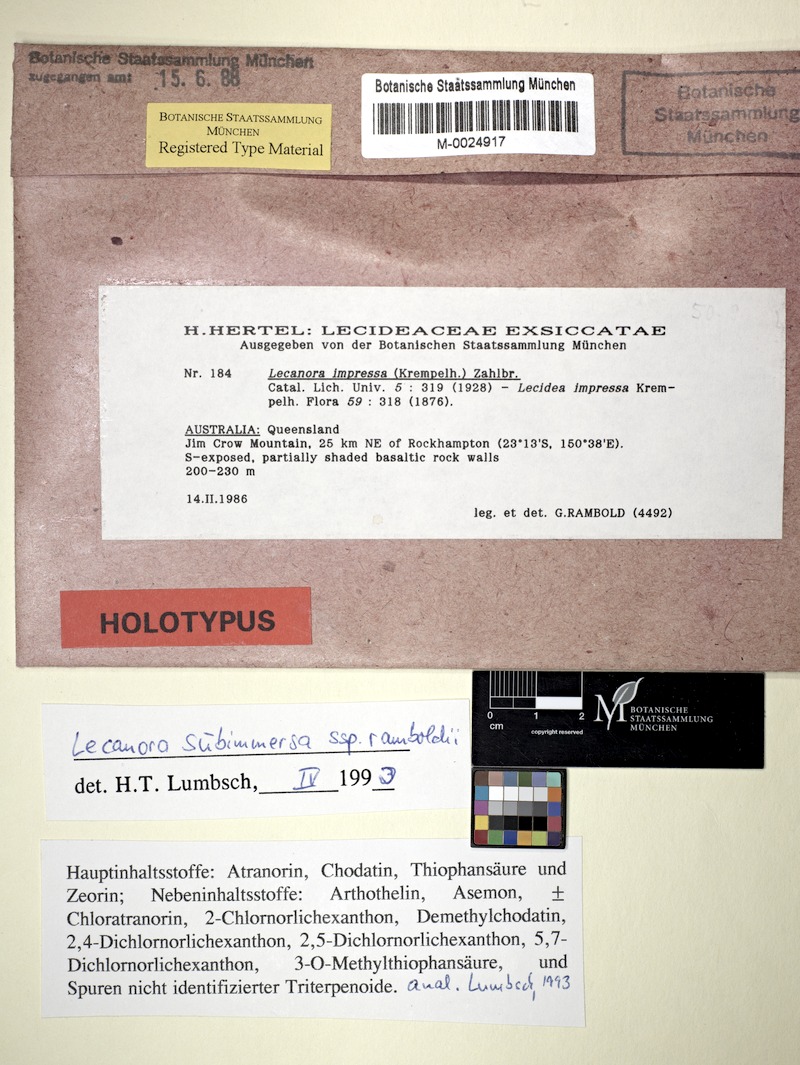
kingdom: Fungi
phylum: Ascomycota
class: Lecanoromycetes
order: Lecanorales
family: Lecanoraceae
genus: Lecanora
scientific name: Lecanora subimmersa
